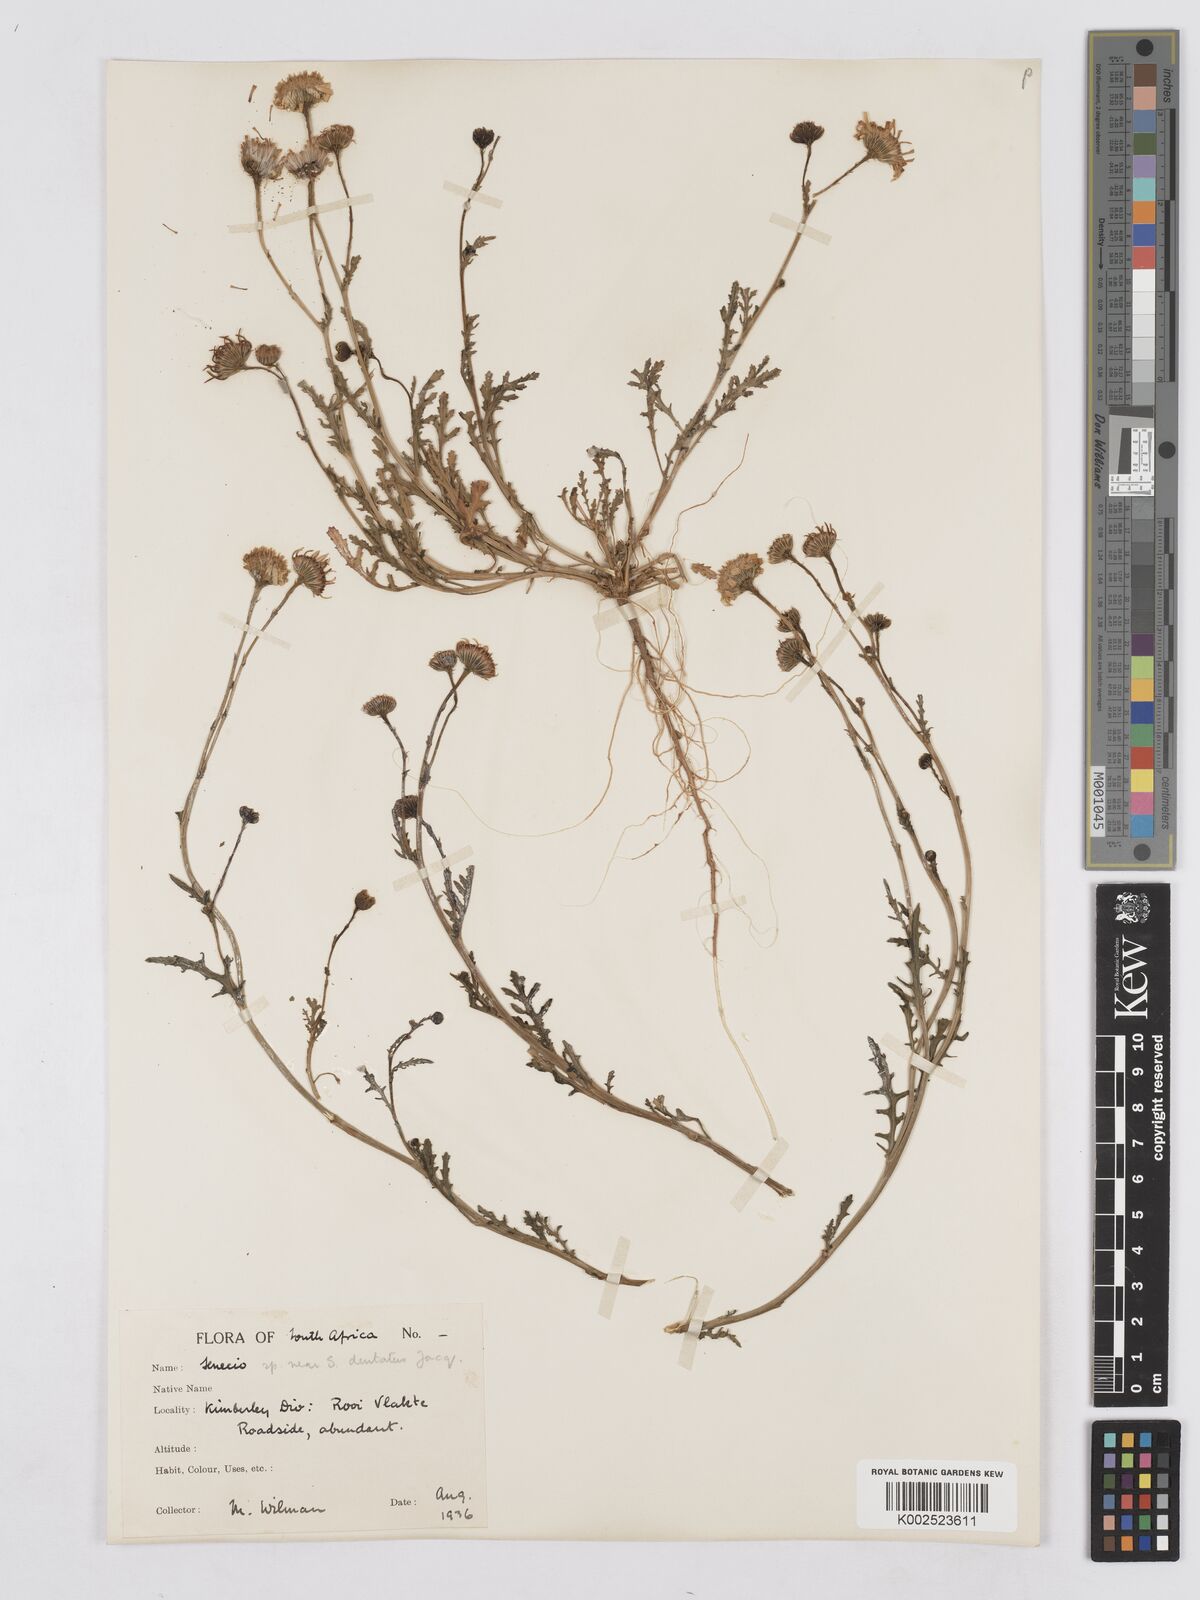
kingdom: Plantae
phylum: Tracheophyta
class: Magnoliopsida
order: Asterales
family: Asteraceae
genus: Senecio
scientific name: Senecio
